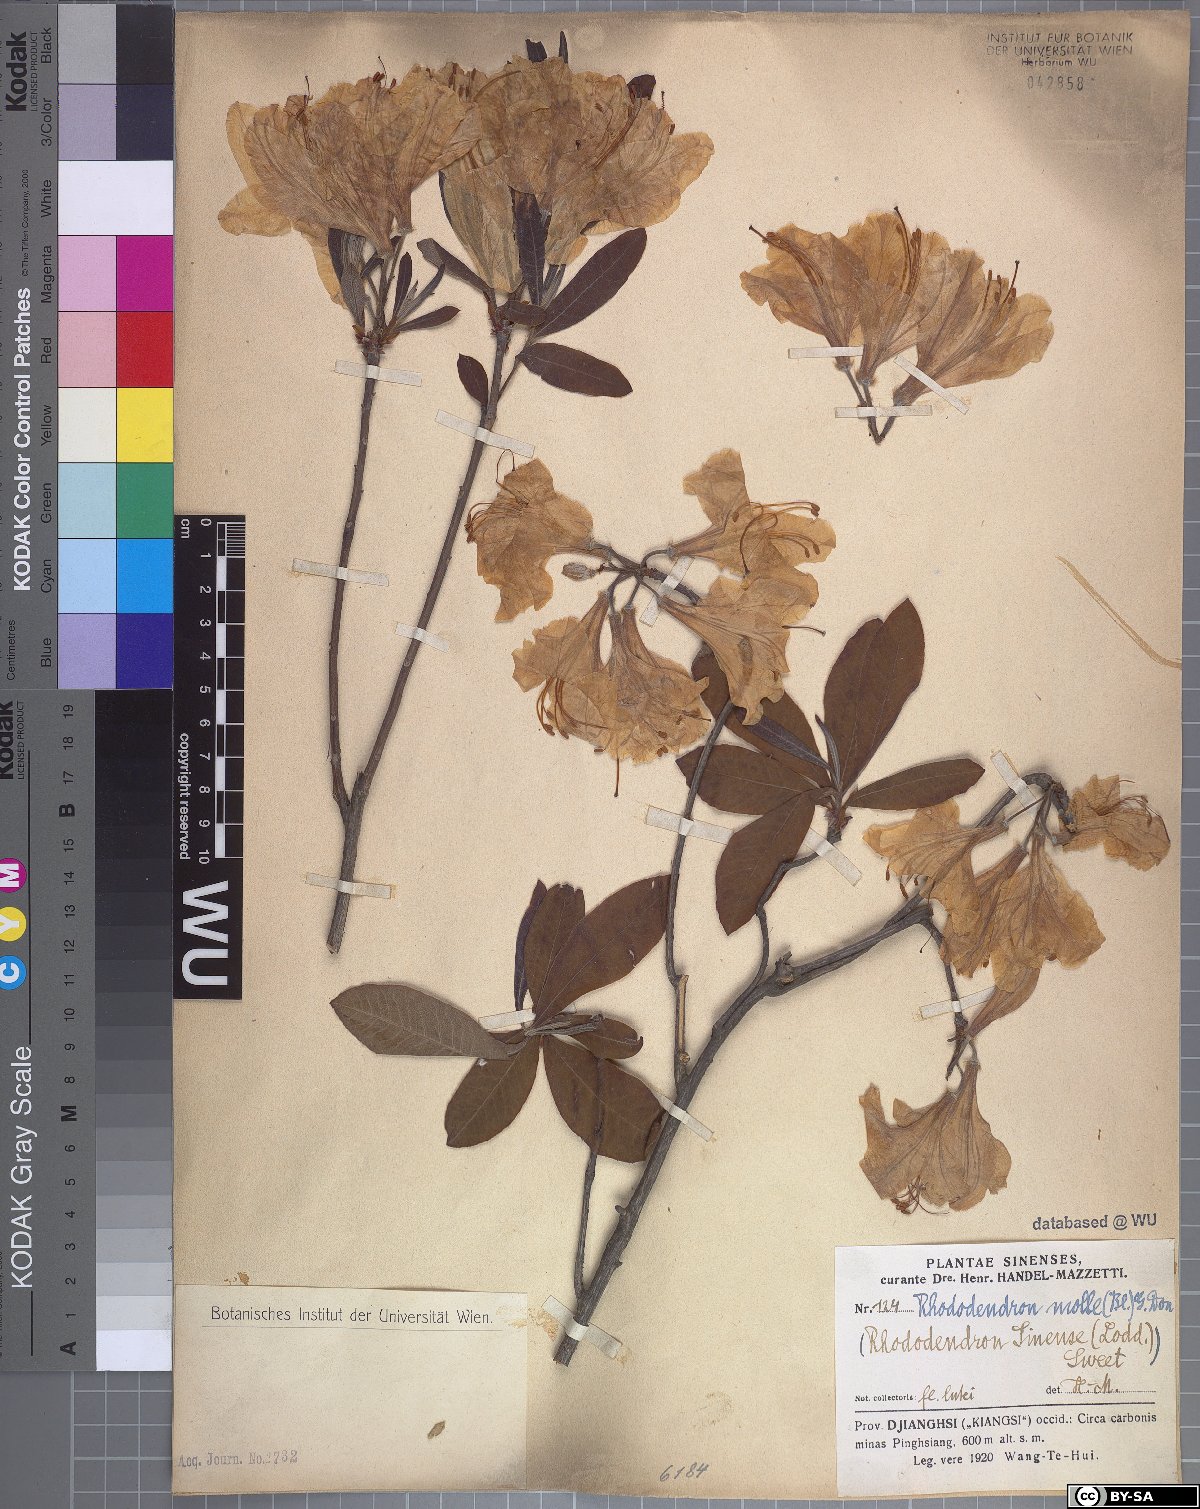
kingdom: Plantae
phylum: Tracheophyta
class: Magnoliopsida
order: Ericales
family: Ericaceae
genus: Rhododendron
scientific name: Rhododendron molle
